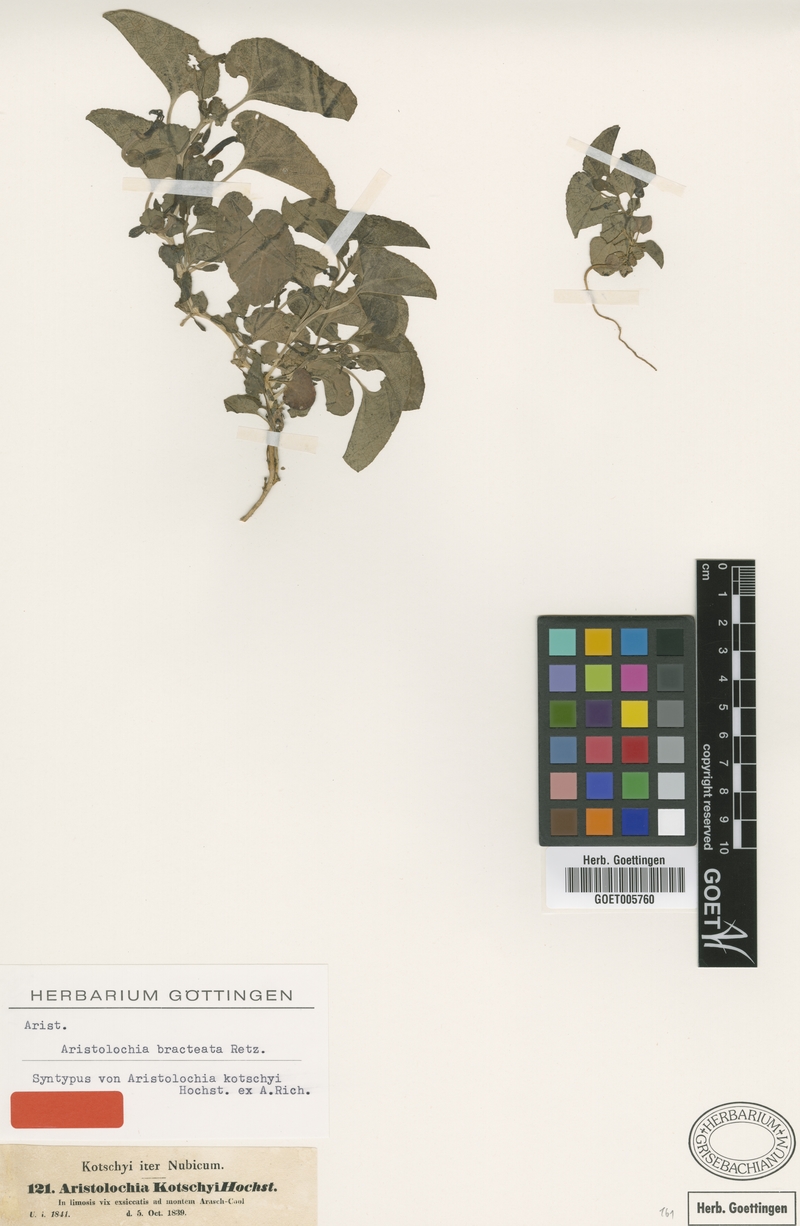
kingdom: Plantae
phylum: Tracheophyta
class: Magnoliopsida
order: Piperales
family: Aristolochiaceae
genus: Aristolochia
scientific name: Aristolochia bracteolata
